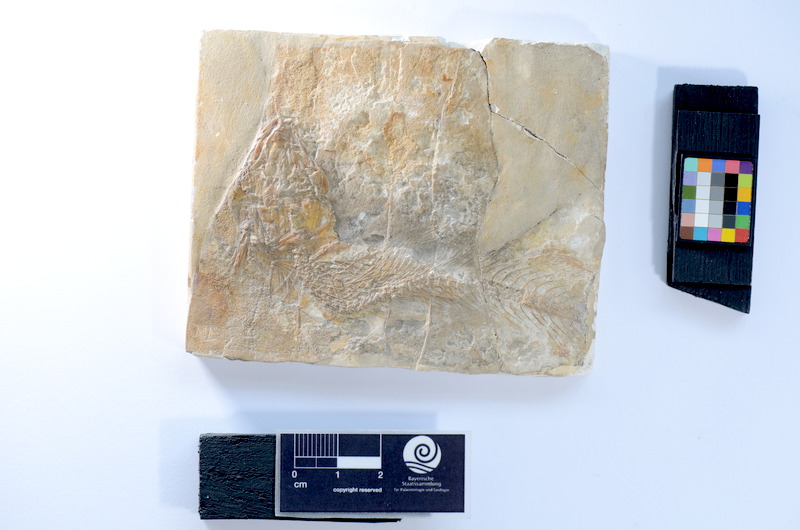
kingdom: Animalia
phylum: Chordata
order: Elopiformes
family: Anaethalionidae
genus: Anaethalion
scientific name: Anaethalion knorri
